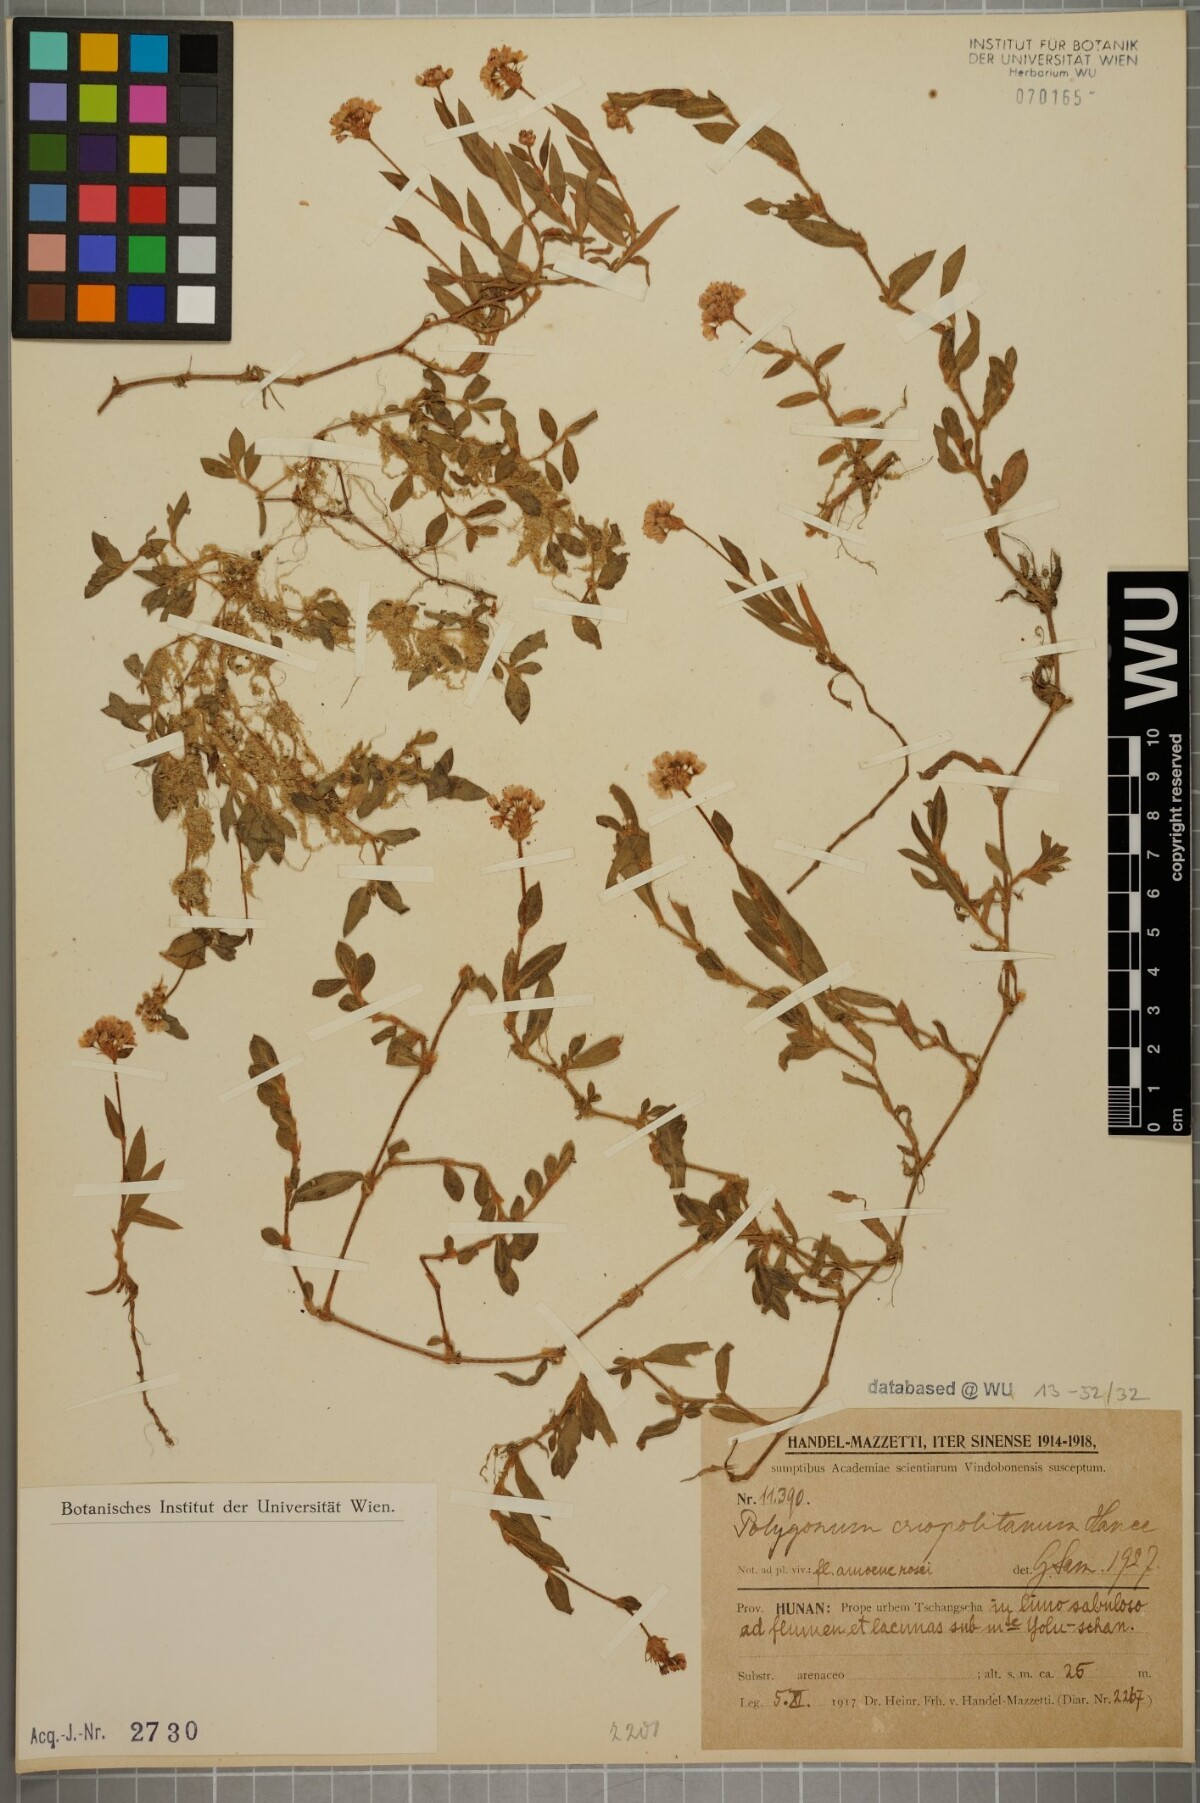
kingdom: Plantae
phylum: Tracheophyta
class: Magnoliopsida
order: Caryophyllales
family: Polygonaceae
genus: Persicaria
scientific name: Persicaria criopolitana
